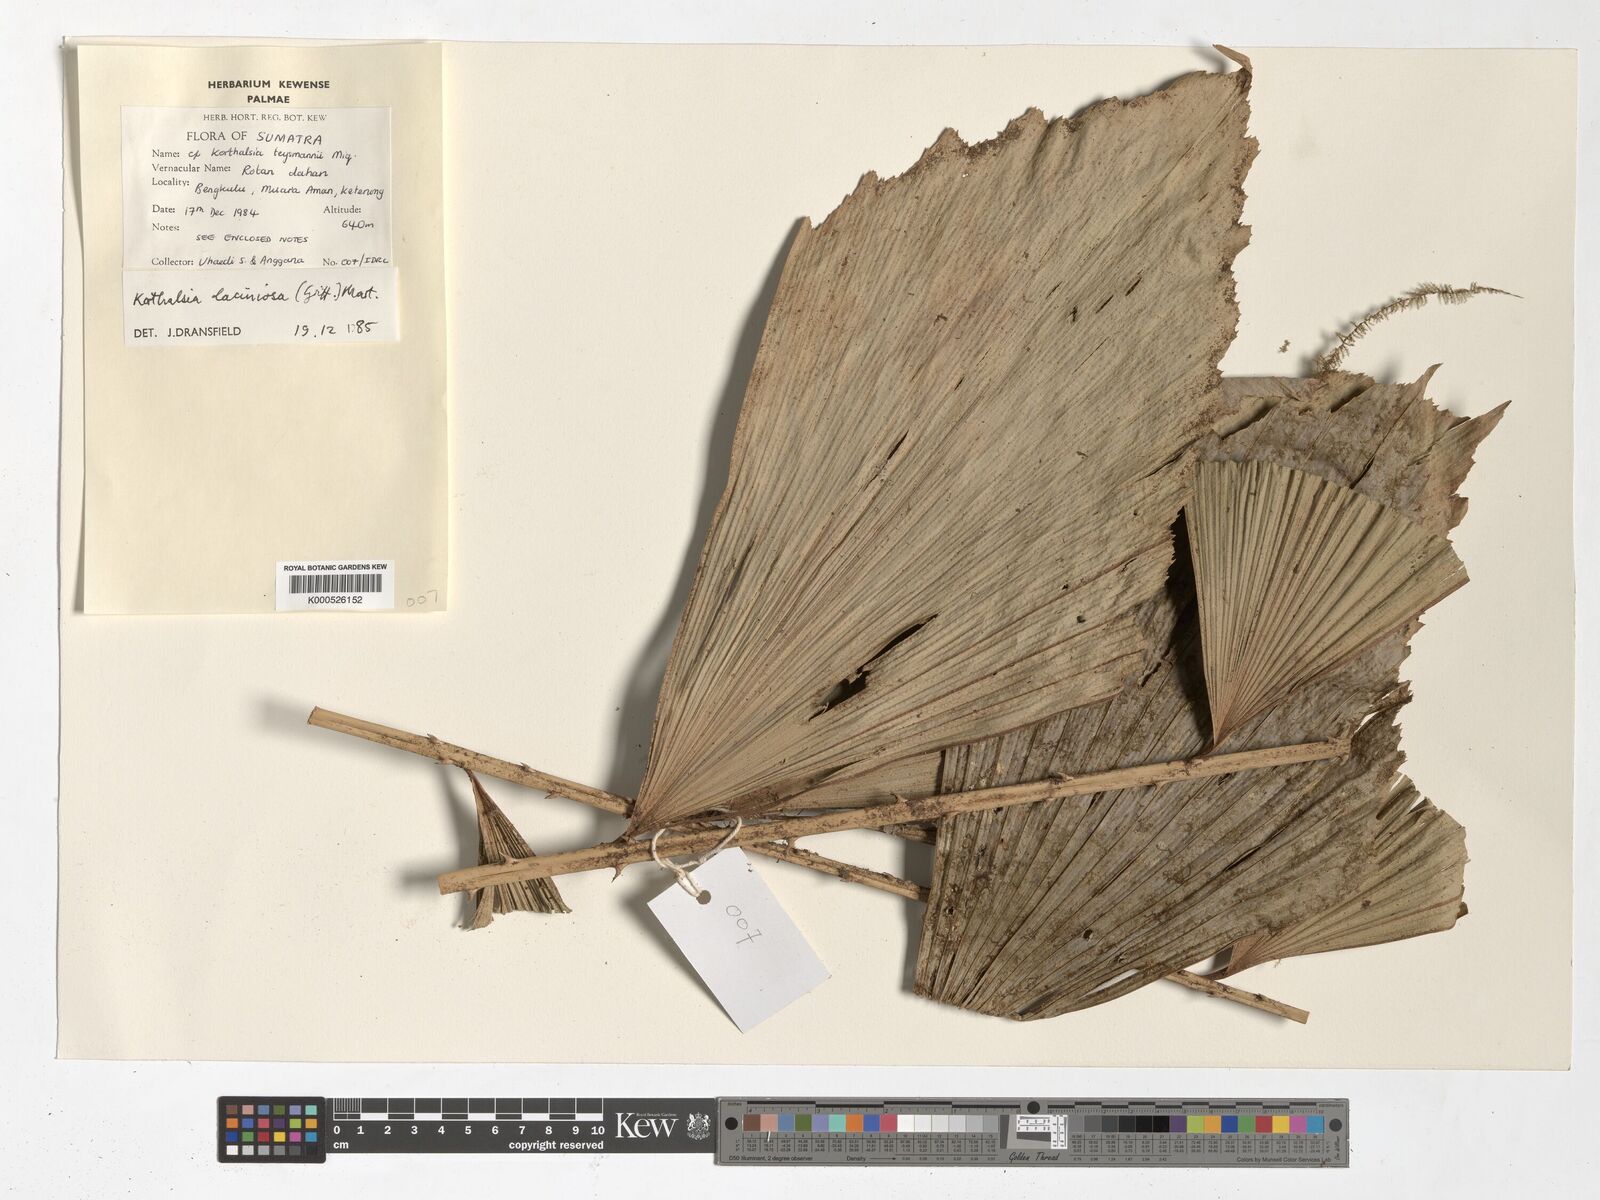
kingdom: Plantae
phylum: Tracheophyta
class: Liliopsida
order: Arecales
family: Arecaceae
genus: Korthalsia
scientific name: Korthalsia laciniosa
